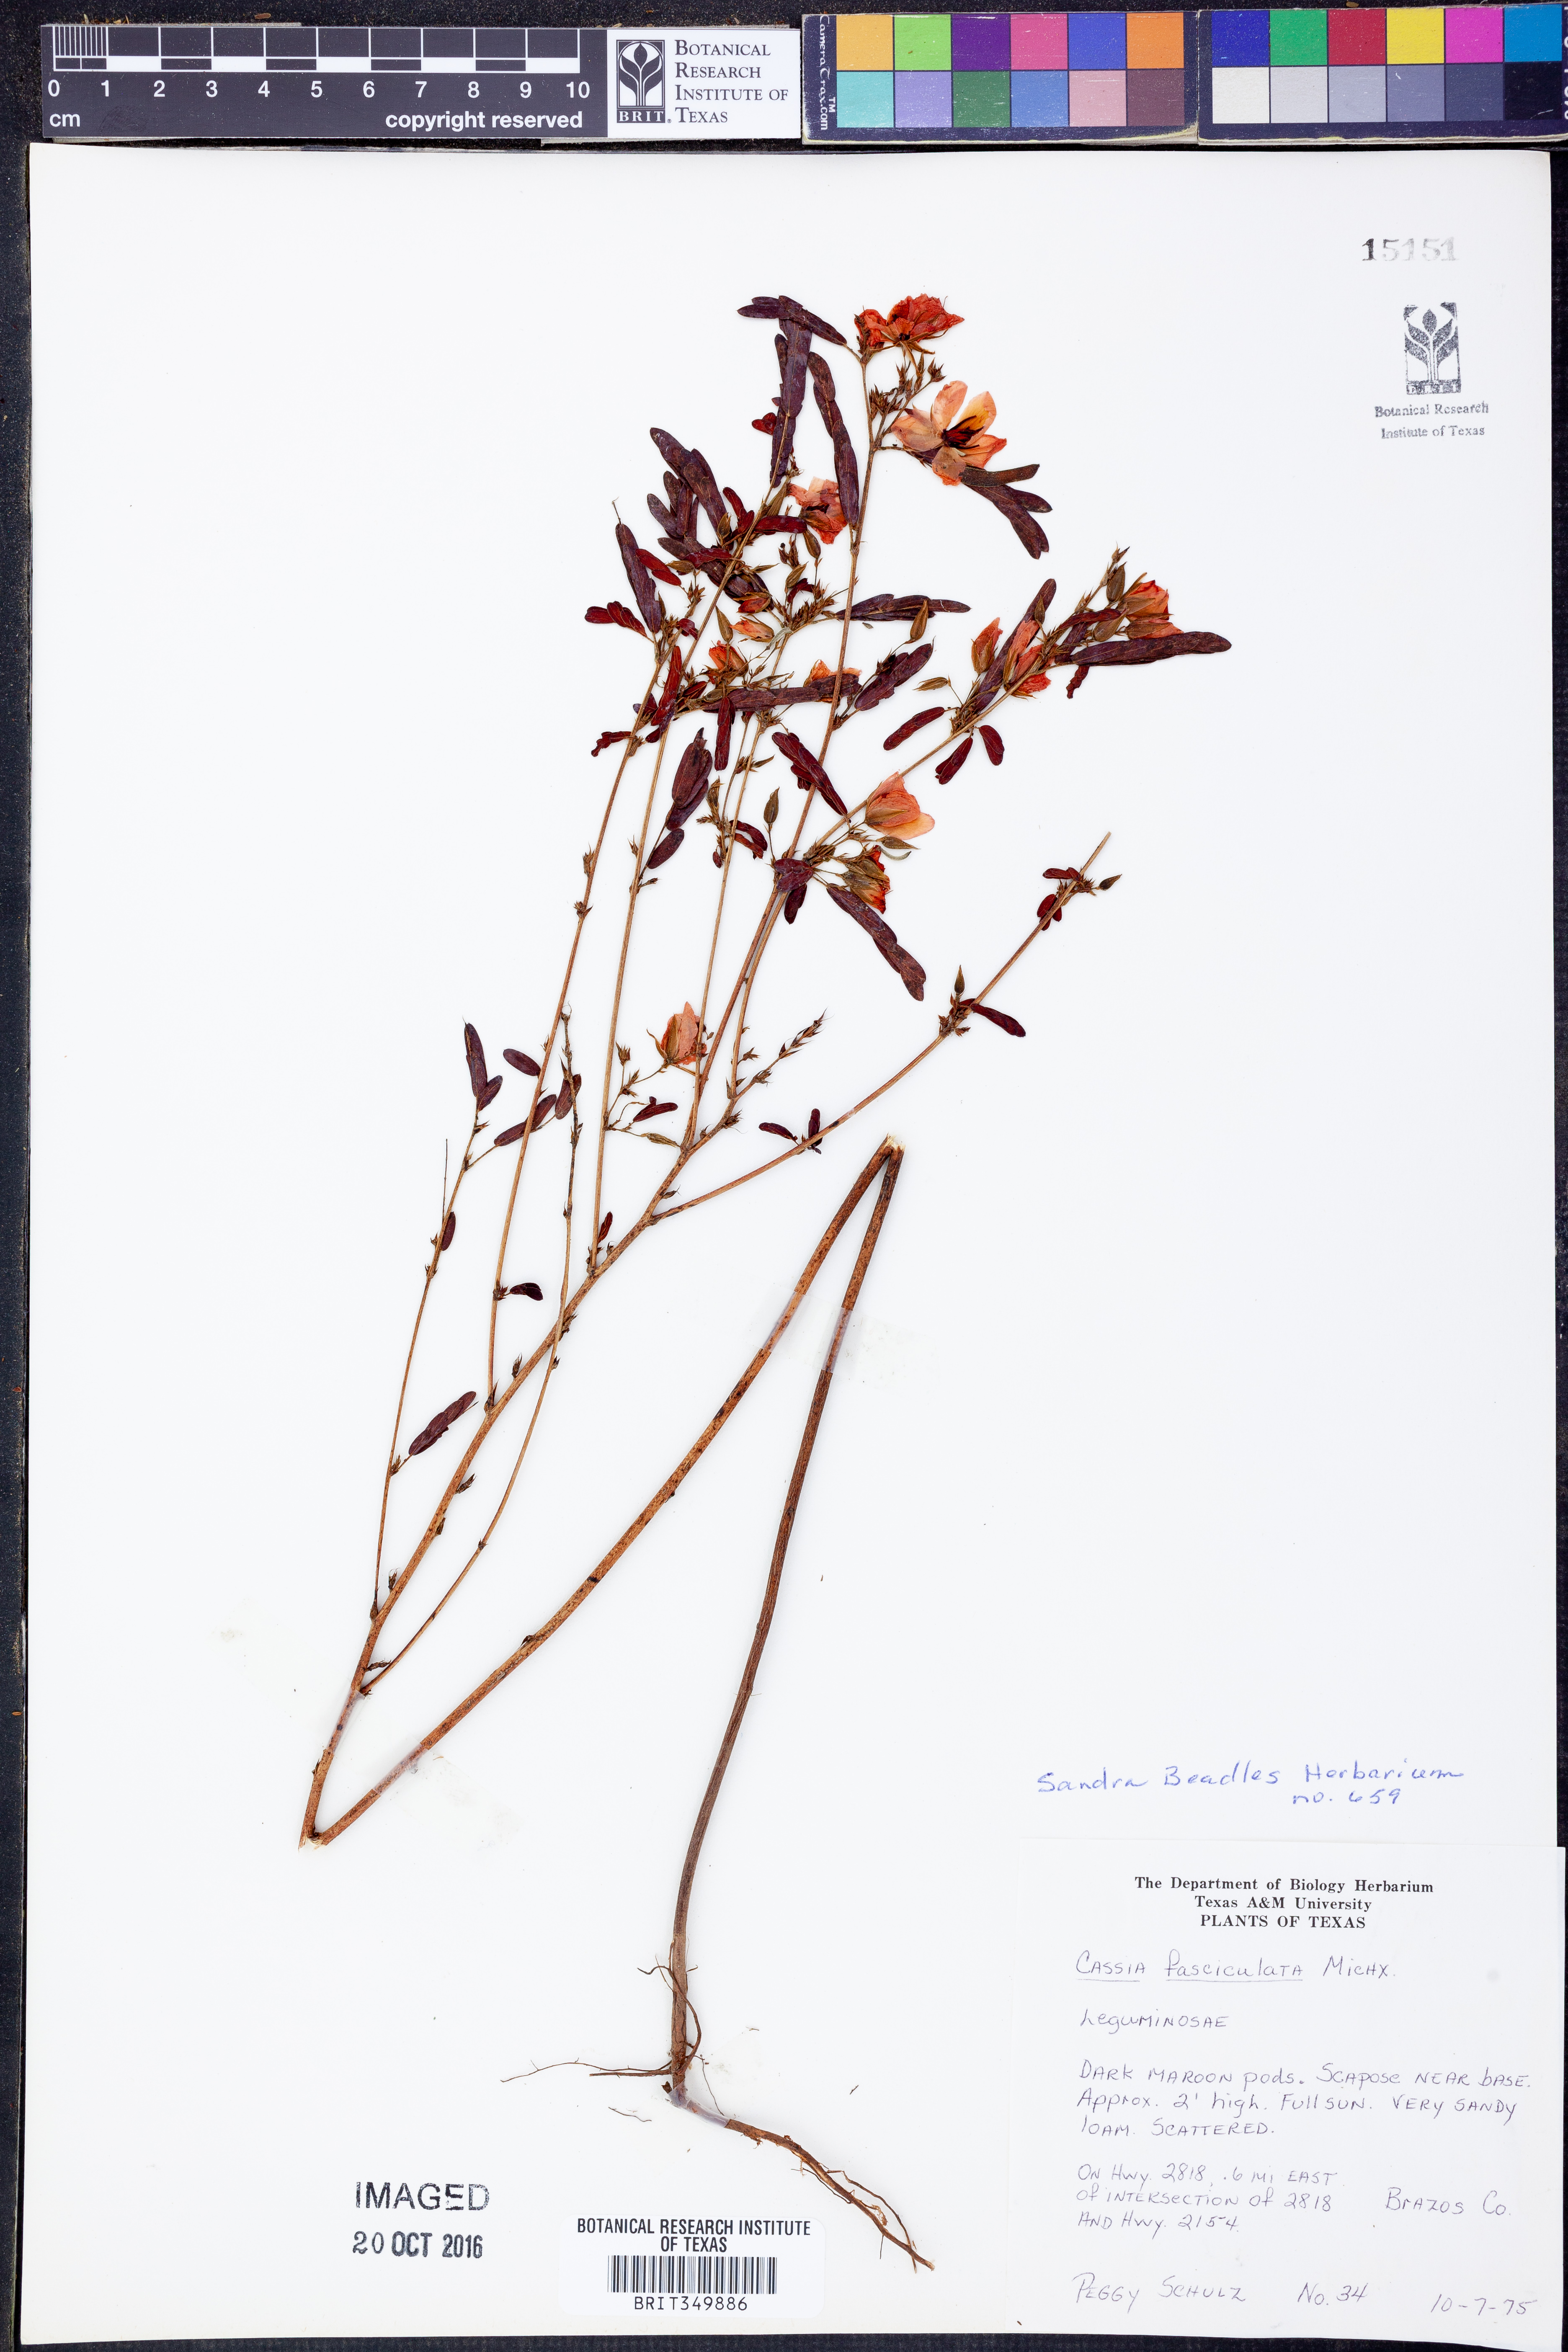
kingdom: Plantae
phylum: Tracheophyta
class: Magnoliopsida
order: Fabales
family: Fabaceae
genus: Chamaecrista
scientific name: Chamaecrista fasciculata
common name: Golden cassia
